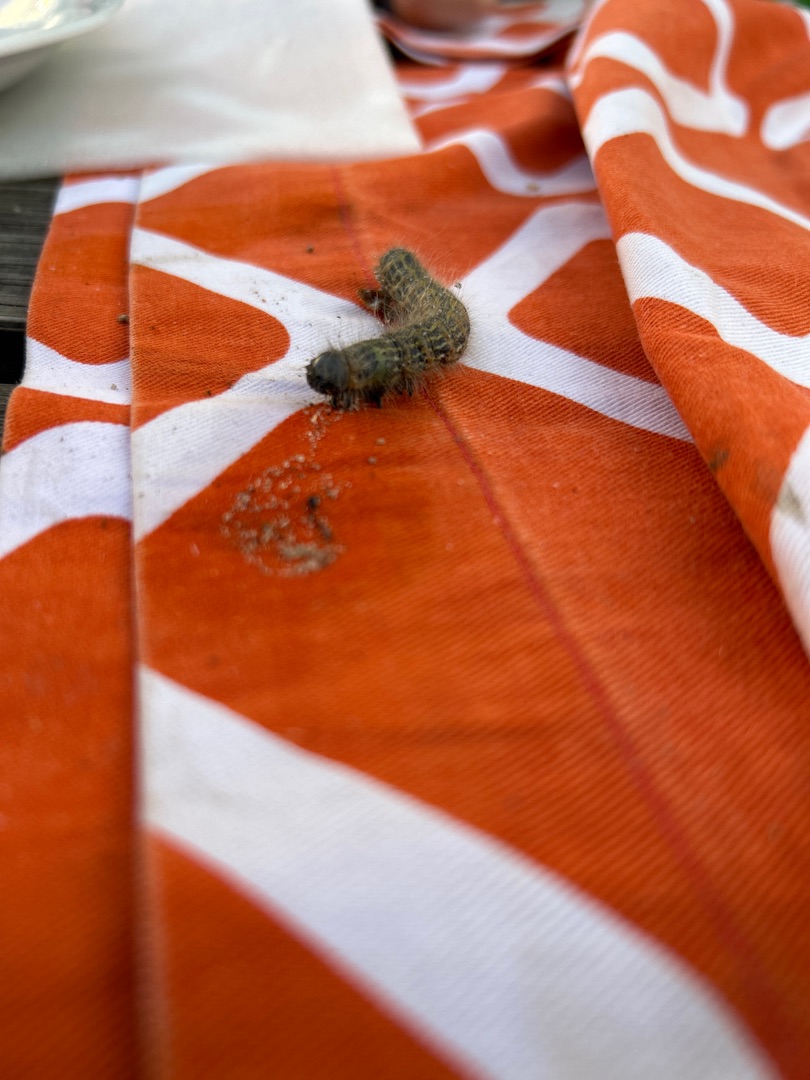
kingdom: Animalia
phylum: Arthropoda
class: Insecta
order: Lepidoptera
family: Notodontidae
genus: Phalera
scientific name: Phalera bucephala
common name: Måneplet
